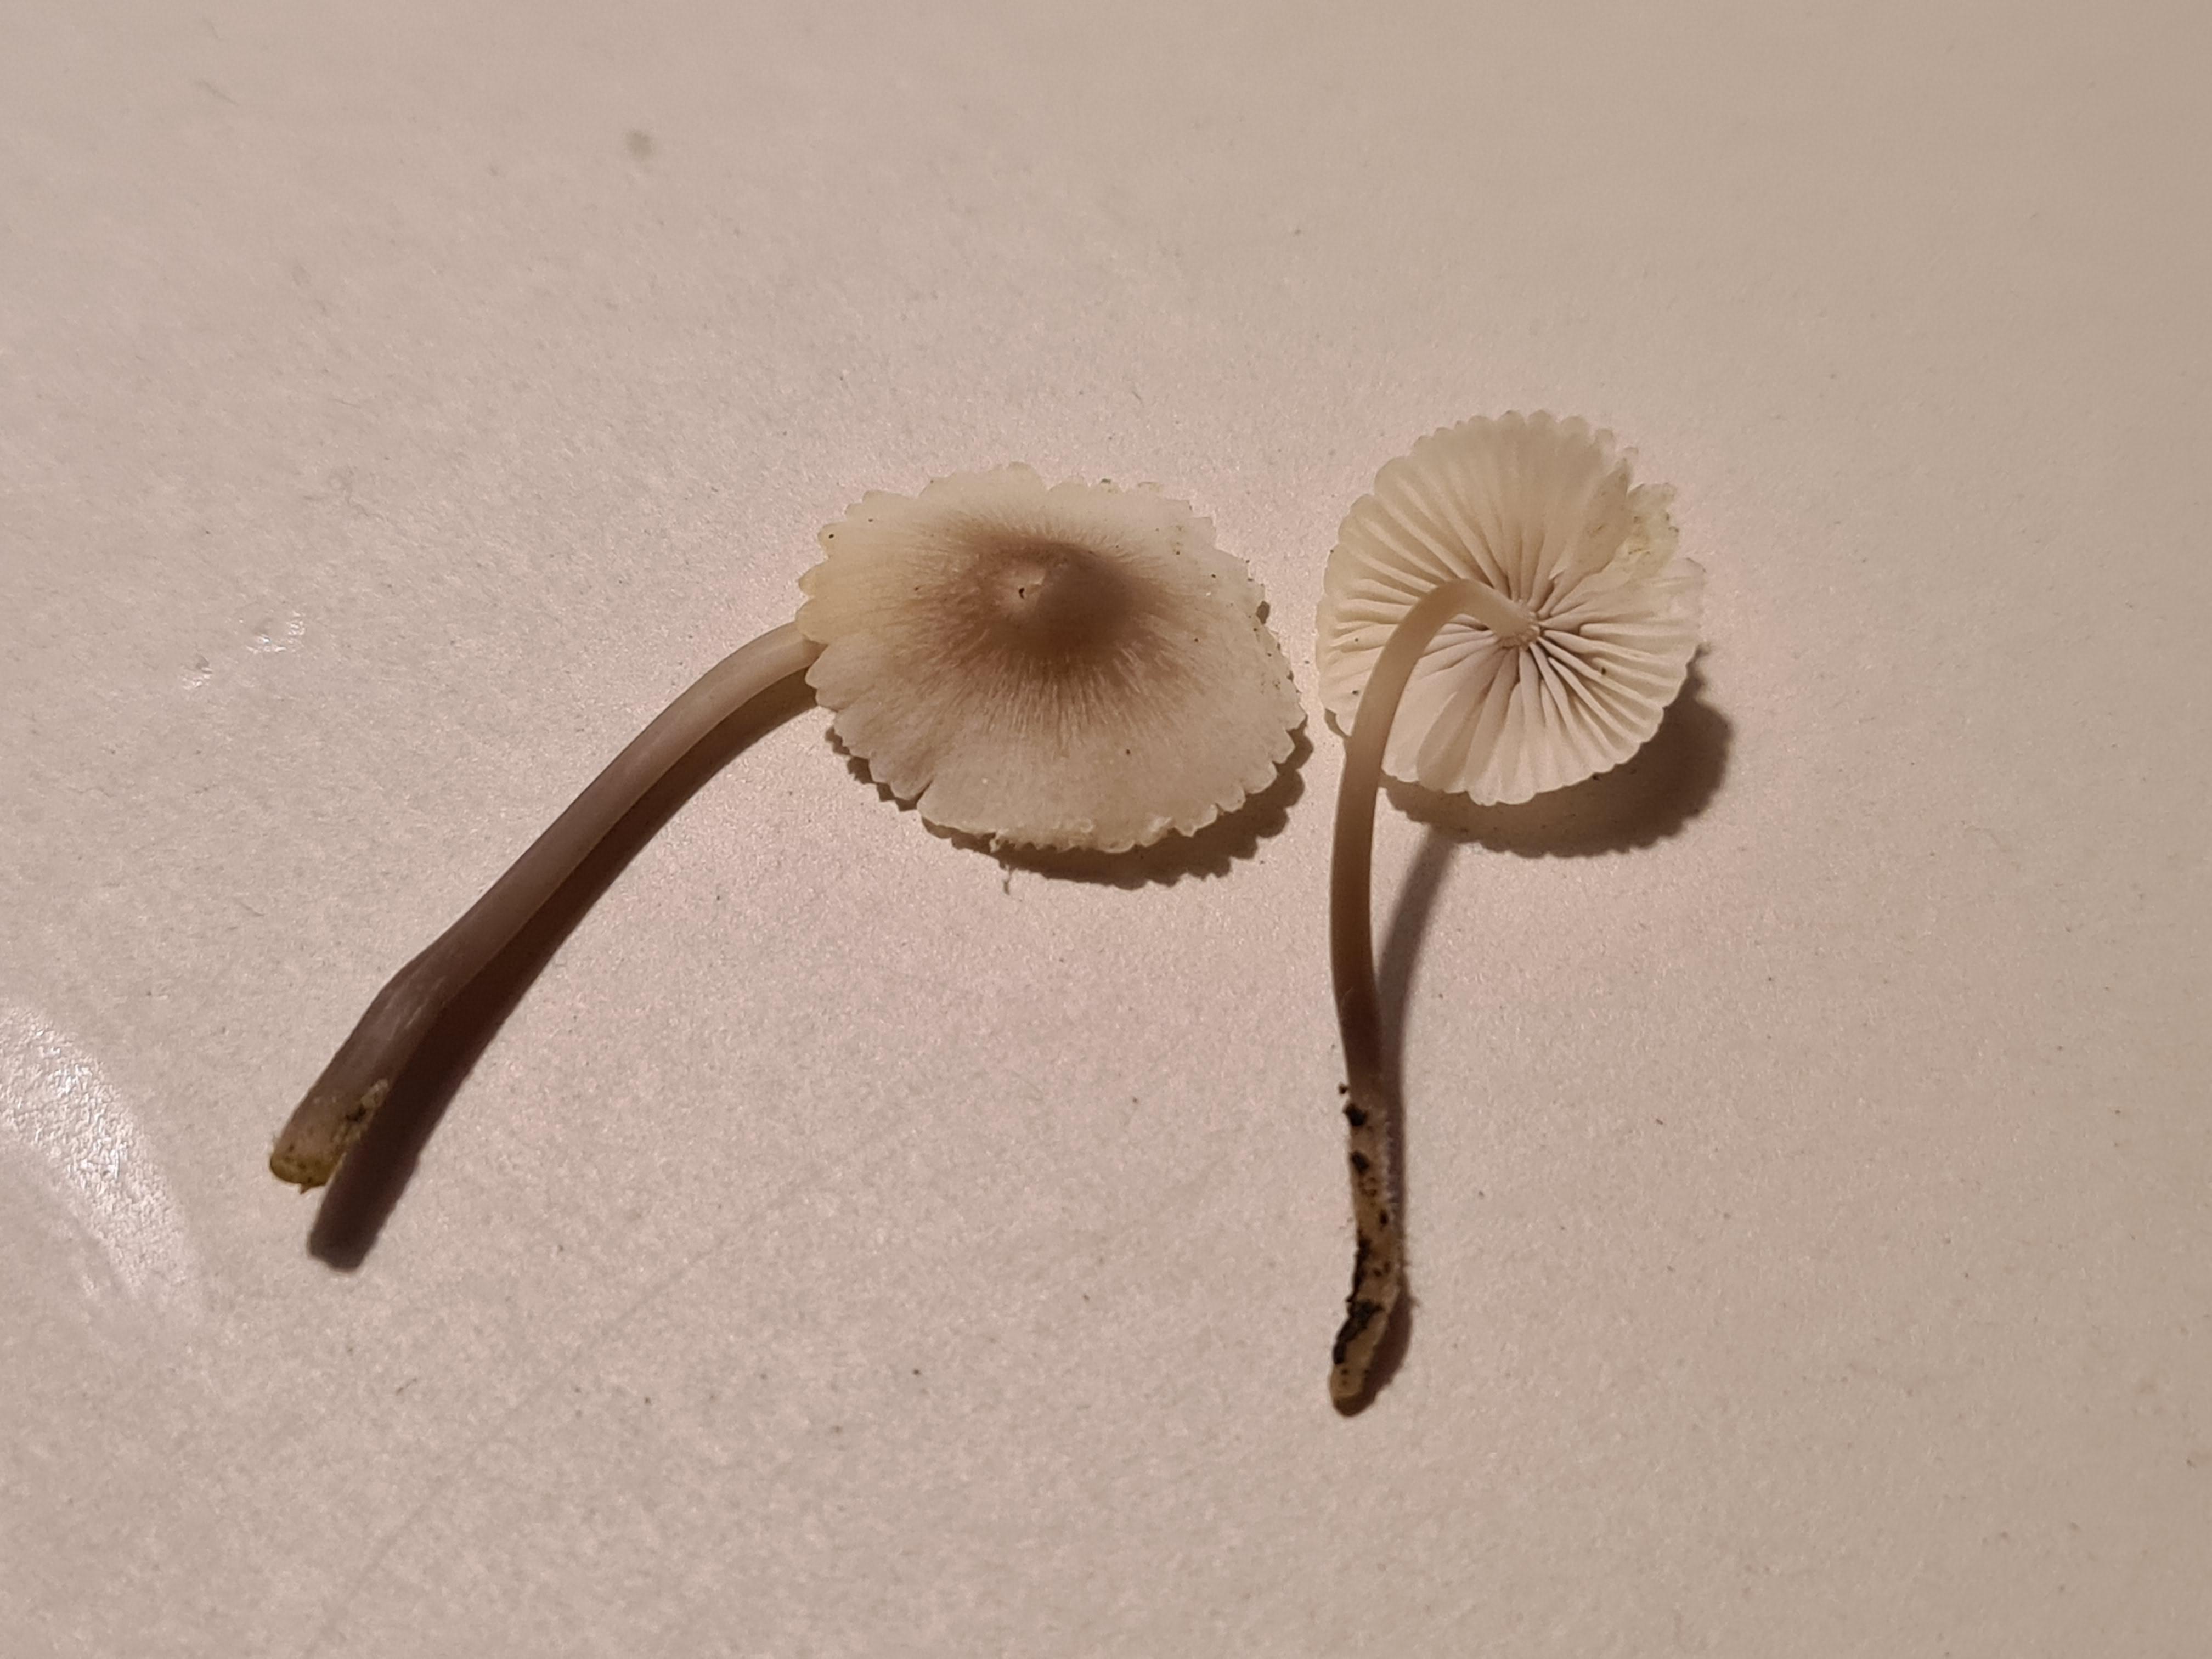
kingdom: Fungi
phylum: Basidiomycota
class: Agaricomycetes
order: Agaricales
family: Mycenaceae
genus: Mycena
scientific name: Mycena galericulata
